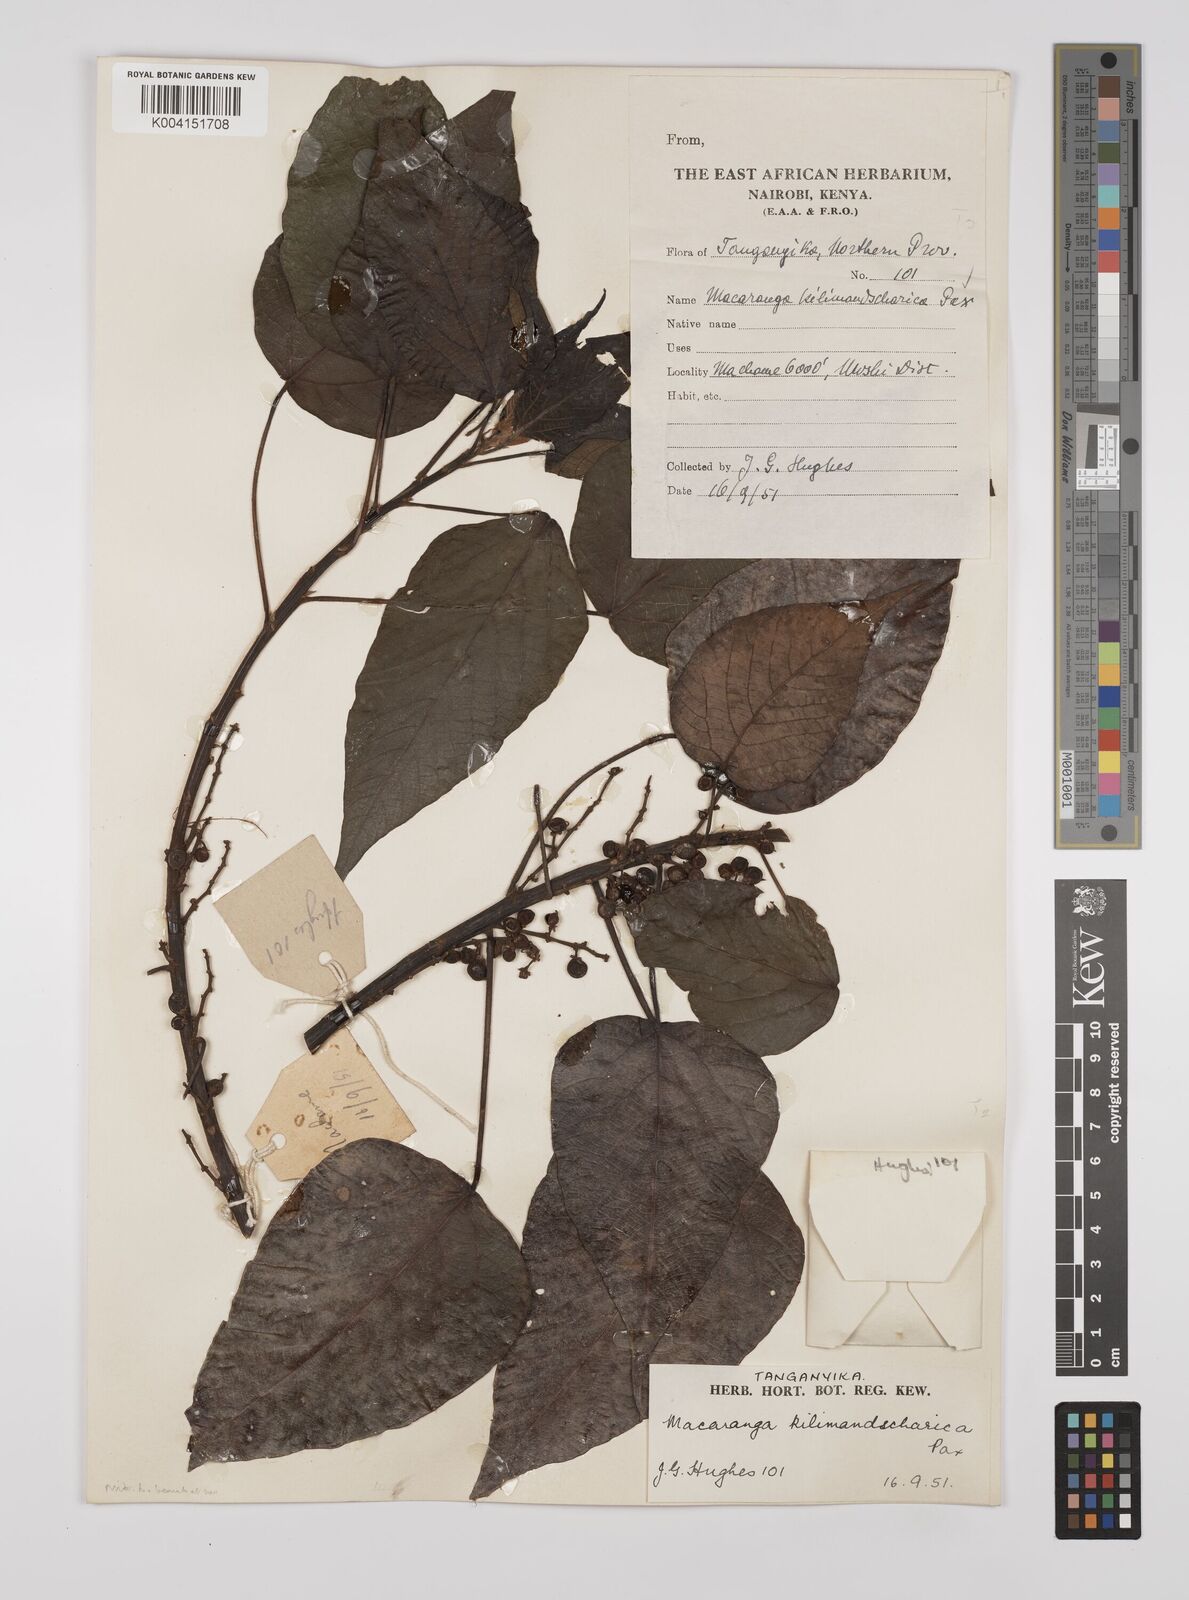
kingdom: Plantae
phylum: Tracheophyta
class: Magnoliopsida
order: Malpighiales
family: Euphorbiaceae
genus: Macaranga
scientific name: Macaranga kilimandscharica
